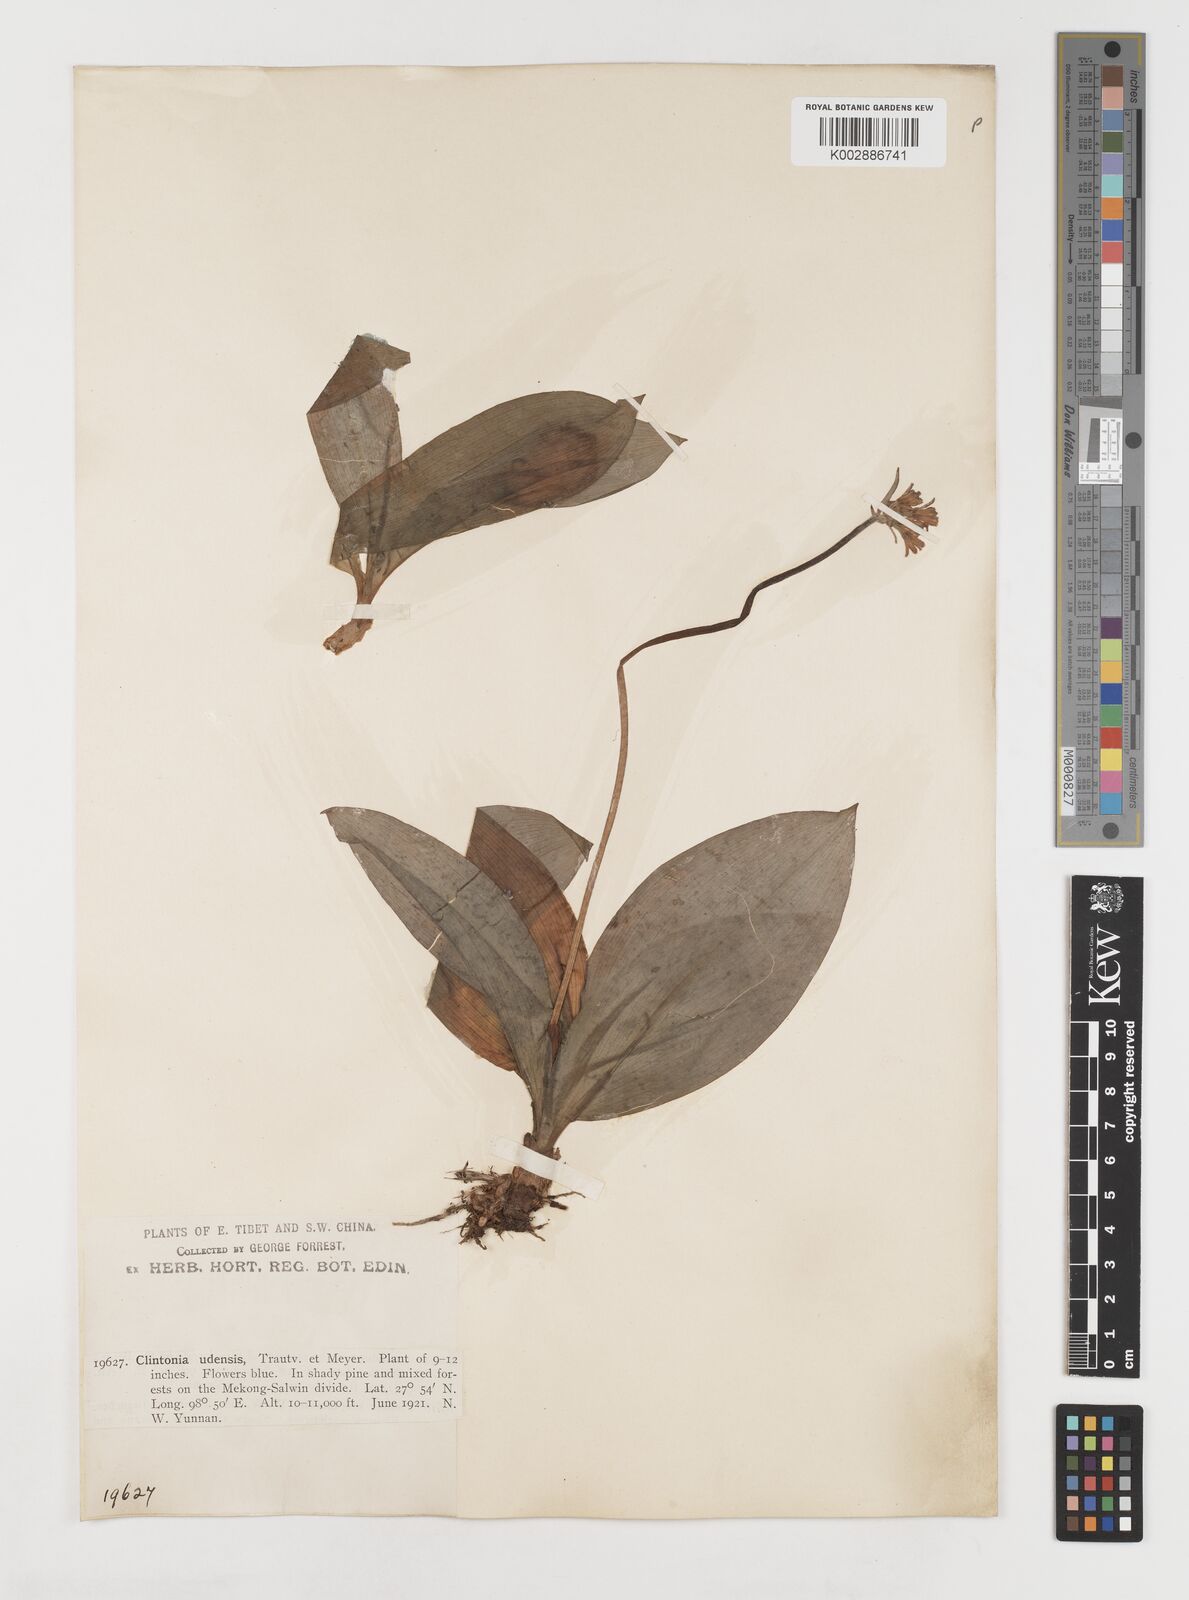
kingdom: Plantae
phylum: Tracheophyta
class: Liliopsida
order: Liliales
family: Liliaceae
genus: Clintonia
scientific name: Clintonia udensis
